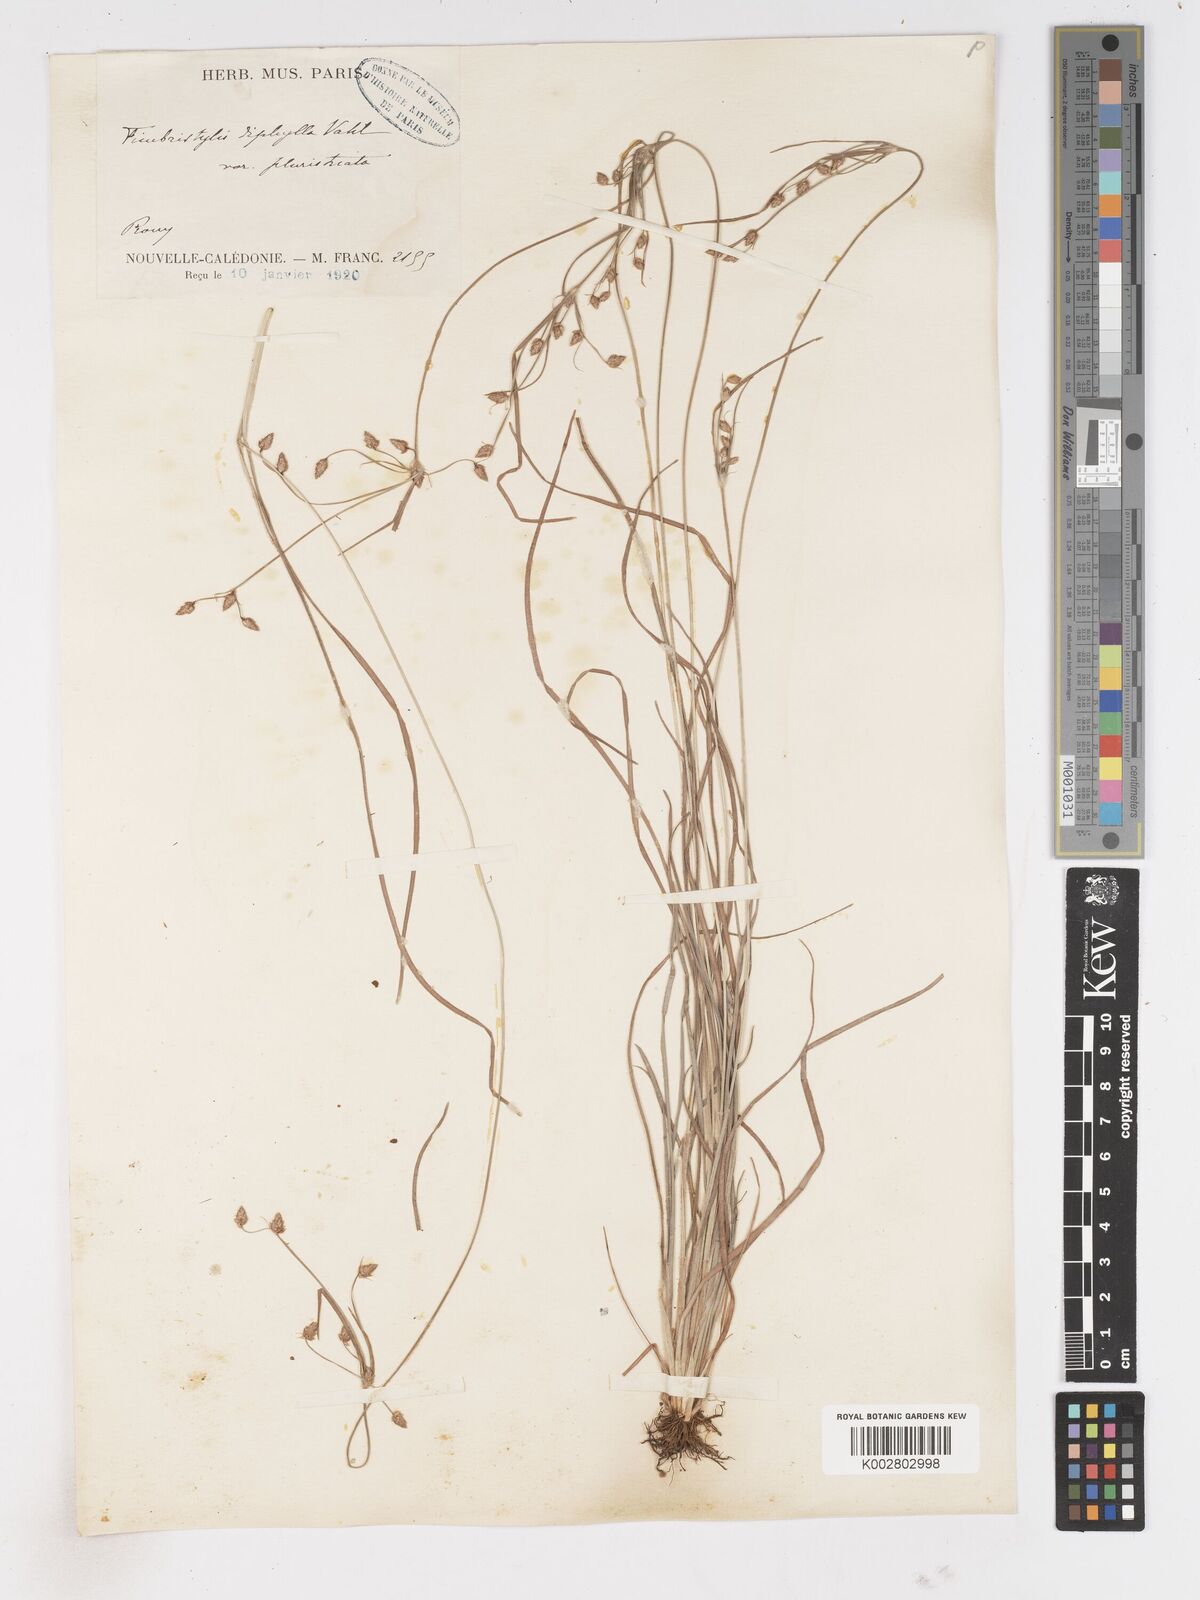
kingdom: Plantae
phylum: Tracheophyta
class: Liliopsida
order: Poales
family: Cyperaceae
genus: Fimbristylis
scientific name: Fimbristylis dichotoma
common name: Forked fimbry
